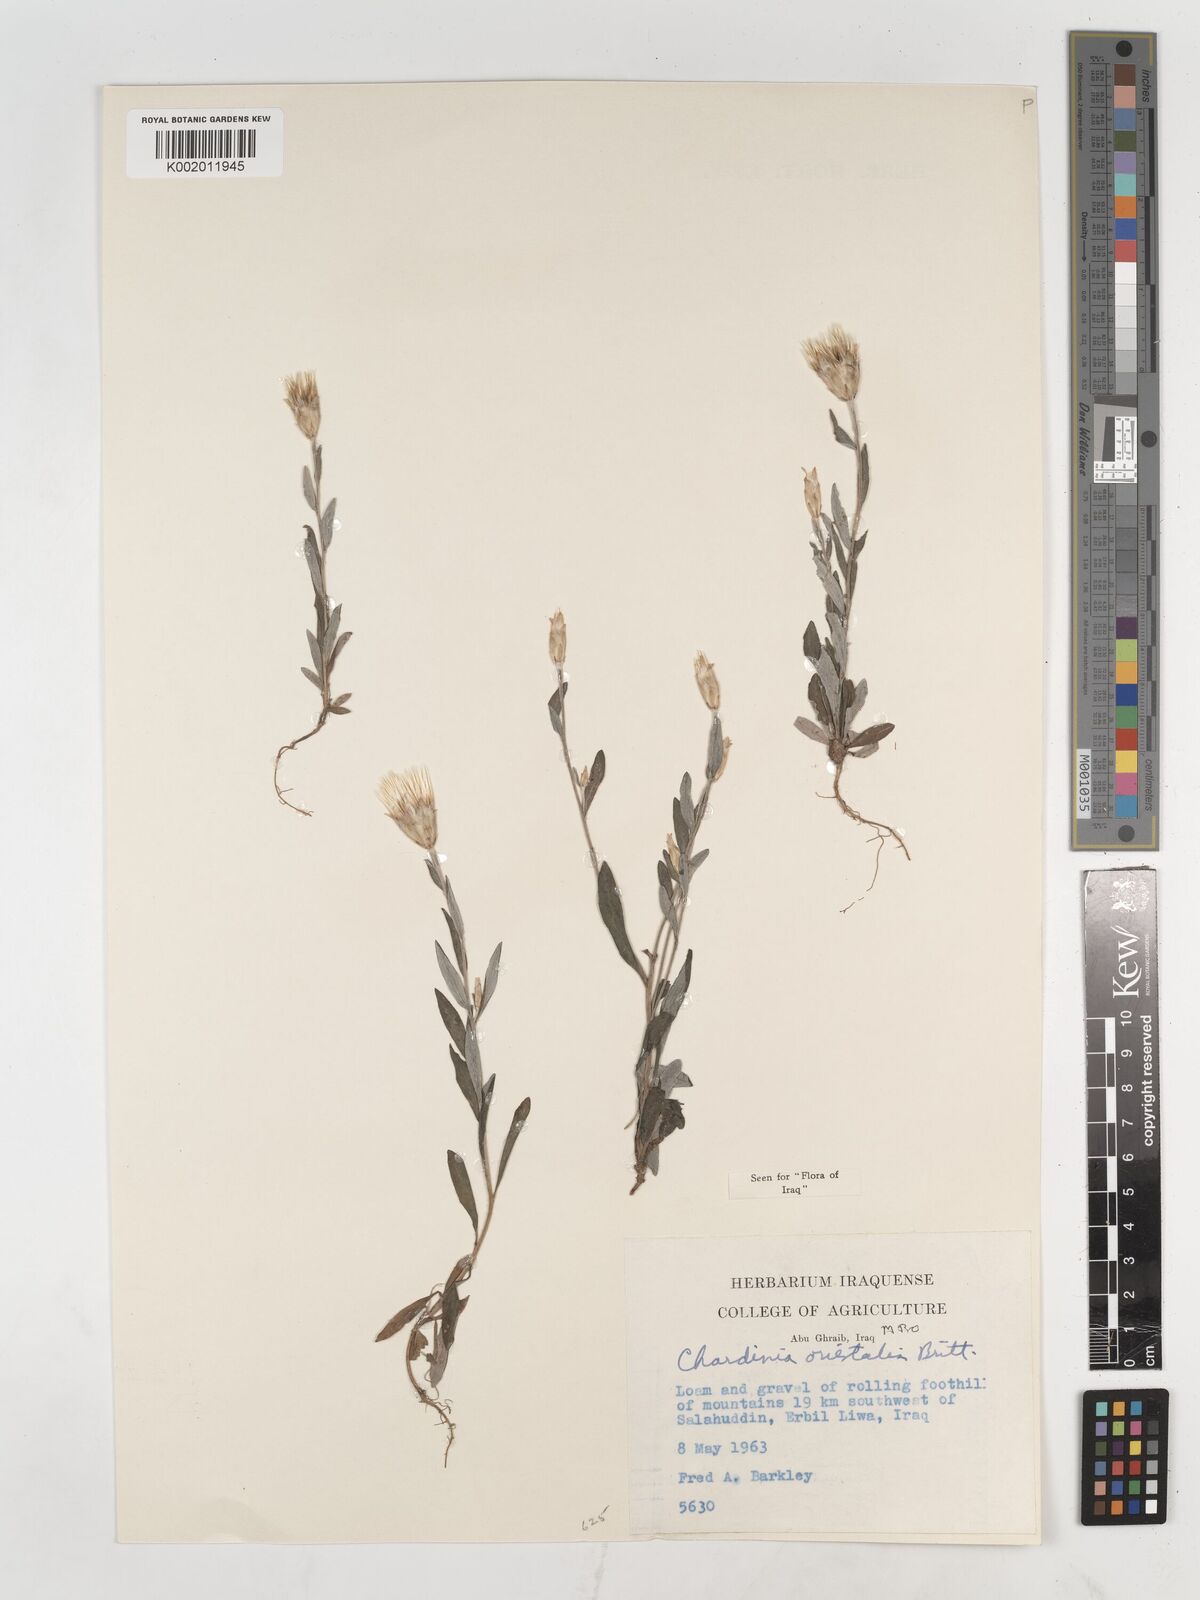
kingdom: Plantae
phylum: Tracheophyta
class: Magnoliopsida
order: Asterales
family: Asteraceae
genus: Chardinia
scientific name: Chardinia orientalis
